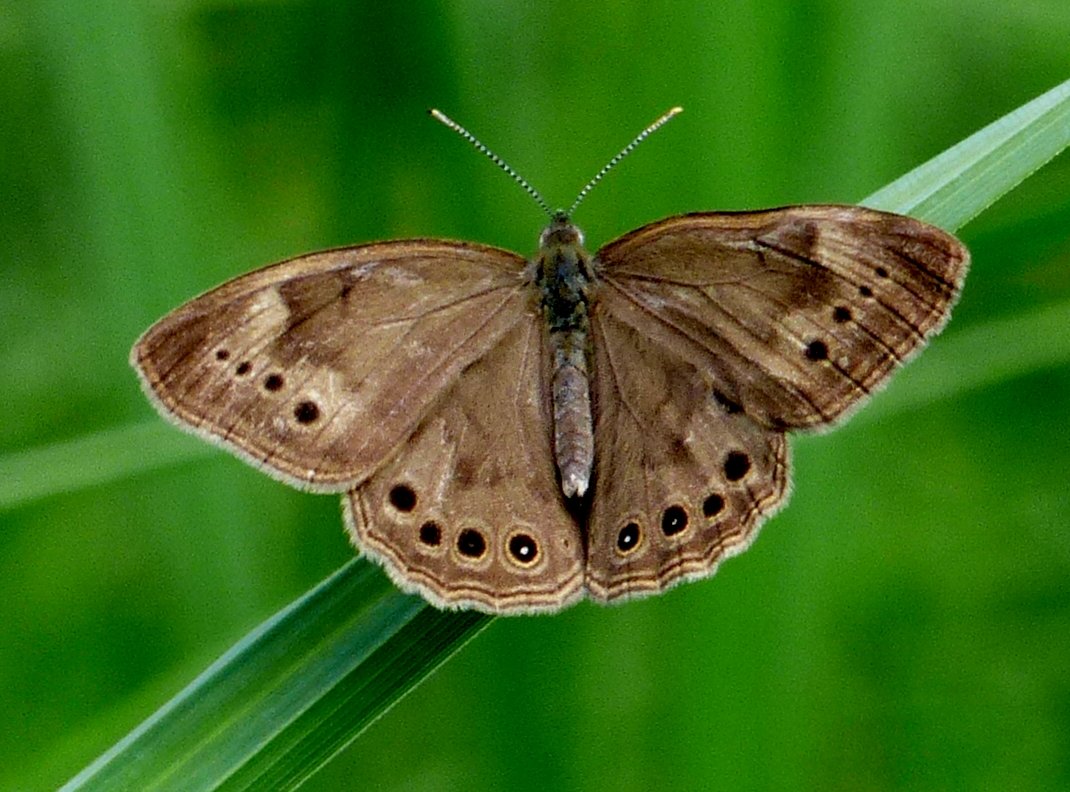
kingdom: Animalia
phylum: Arthropoda
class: Insecta
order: Lepidoptera
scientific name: Lepidoptera
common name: Butterflies
